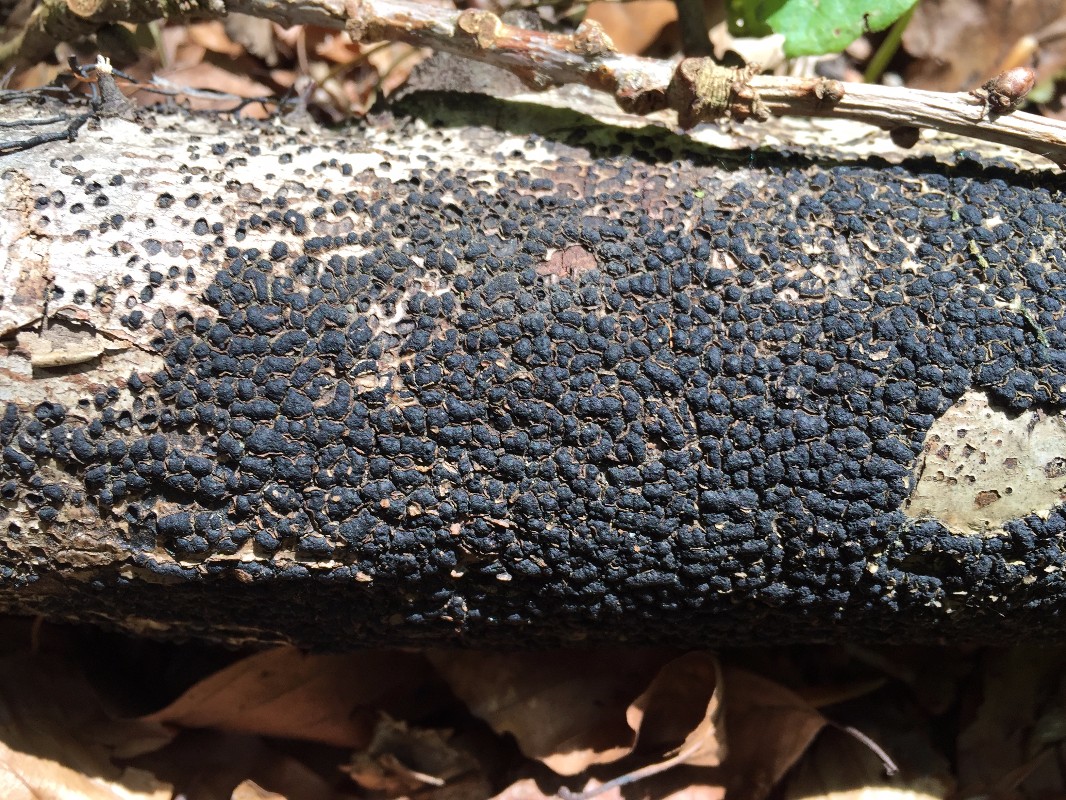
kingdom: Fungi
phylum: Ascomycota
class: Sordariomycetes
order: Xylariales
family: Melogrammataceae
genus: Melogramma
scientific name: Melogramma spiniferum
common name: bøgefod-kulhals
